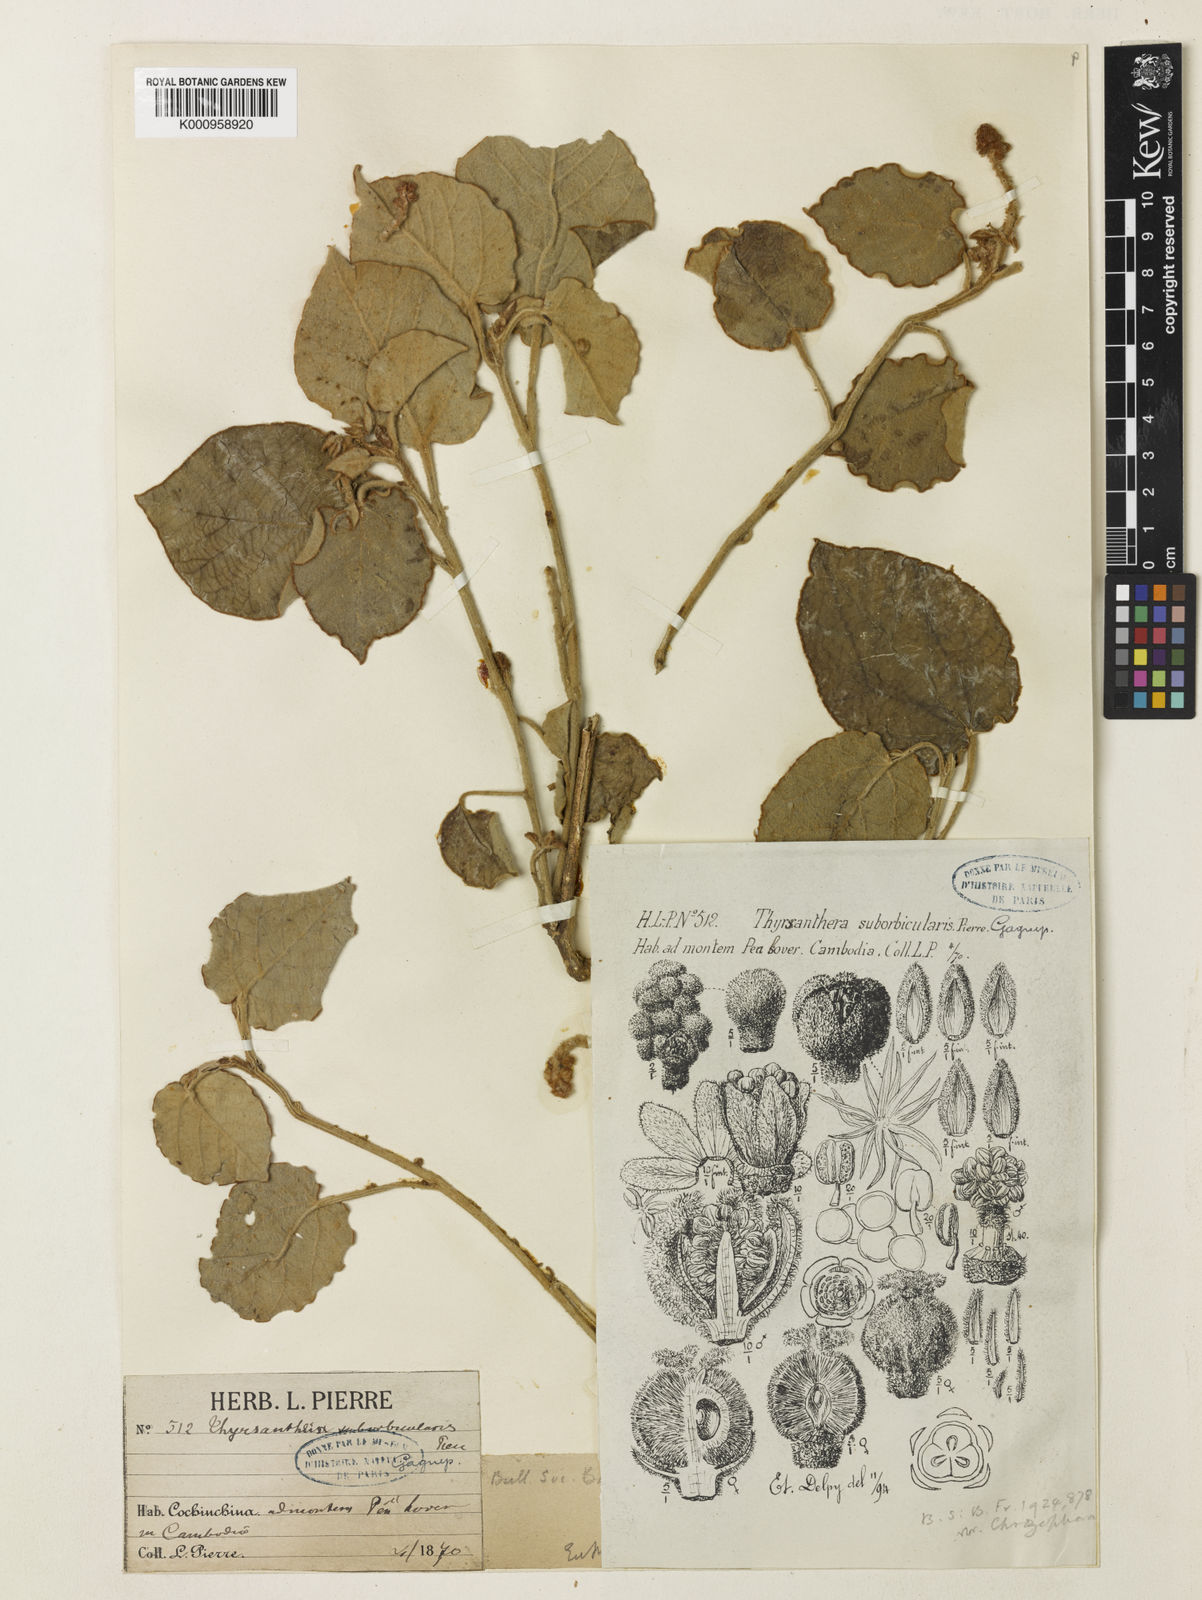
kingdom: Plantae
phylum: Tracheophyta
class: Magnoliopsida
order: Malpighiales
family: Euphorbiaceae
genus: Thyrsanthera
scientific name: Thyrsanthera suborbicularis
